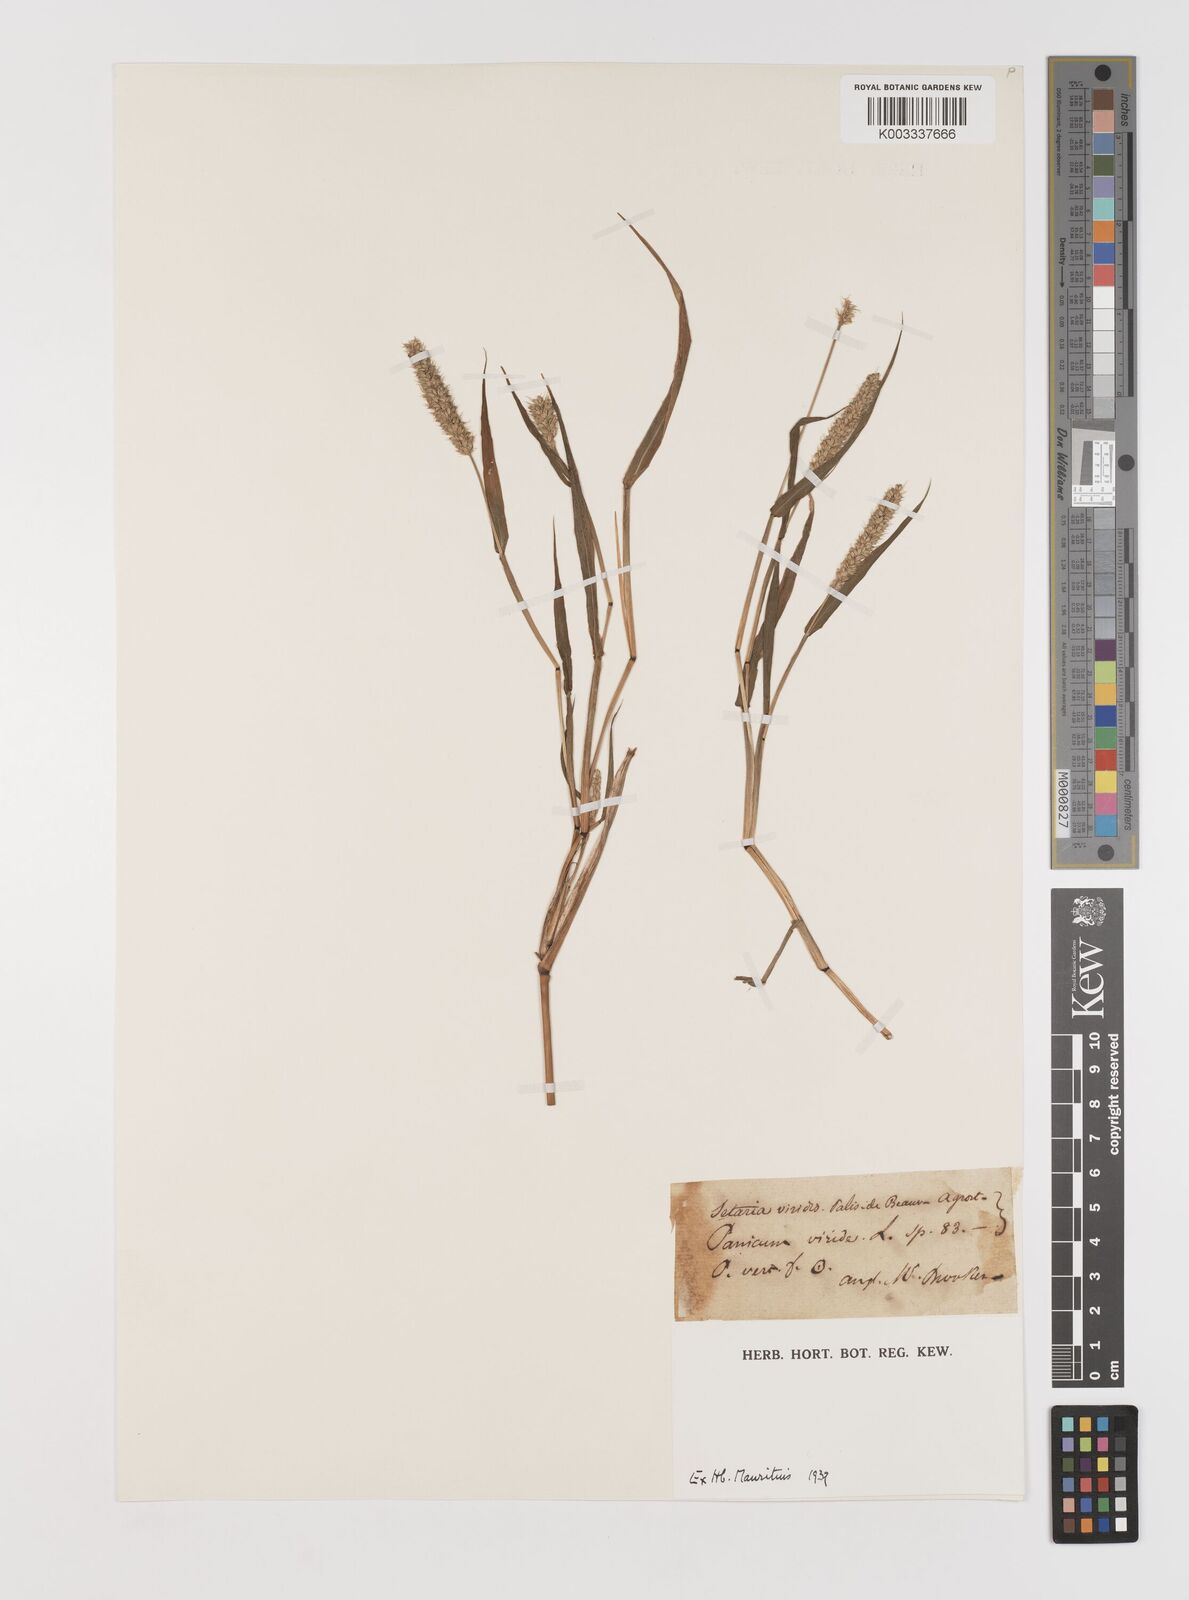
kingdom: Plantae
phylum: Tracheophyta
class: Liliopsida
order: Poales
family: Poaceae
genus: Setaria
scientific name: Setaria verticillata
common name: Hooked bristlegrass
